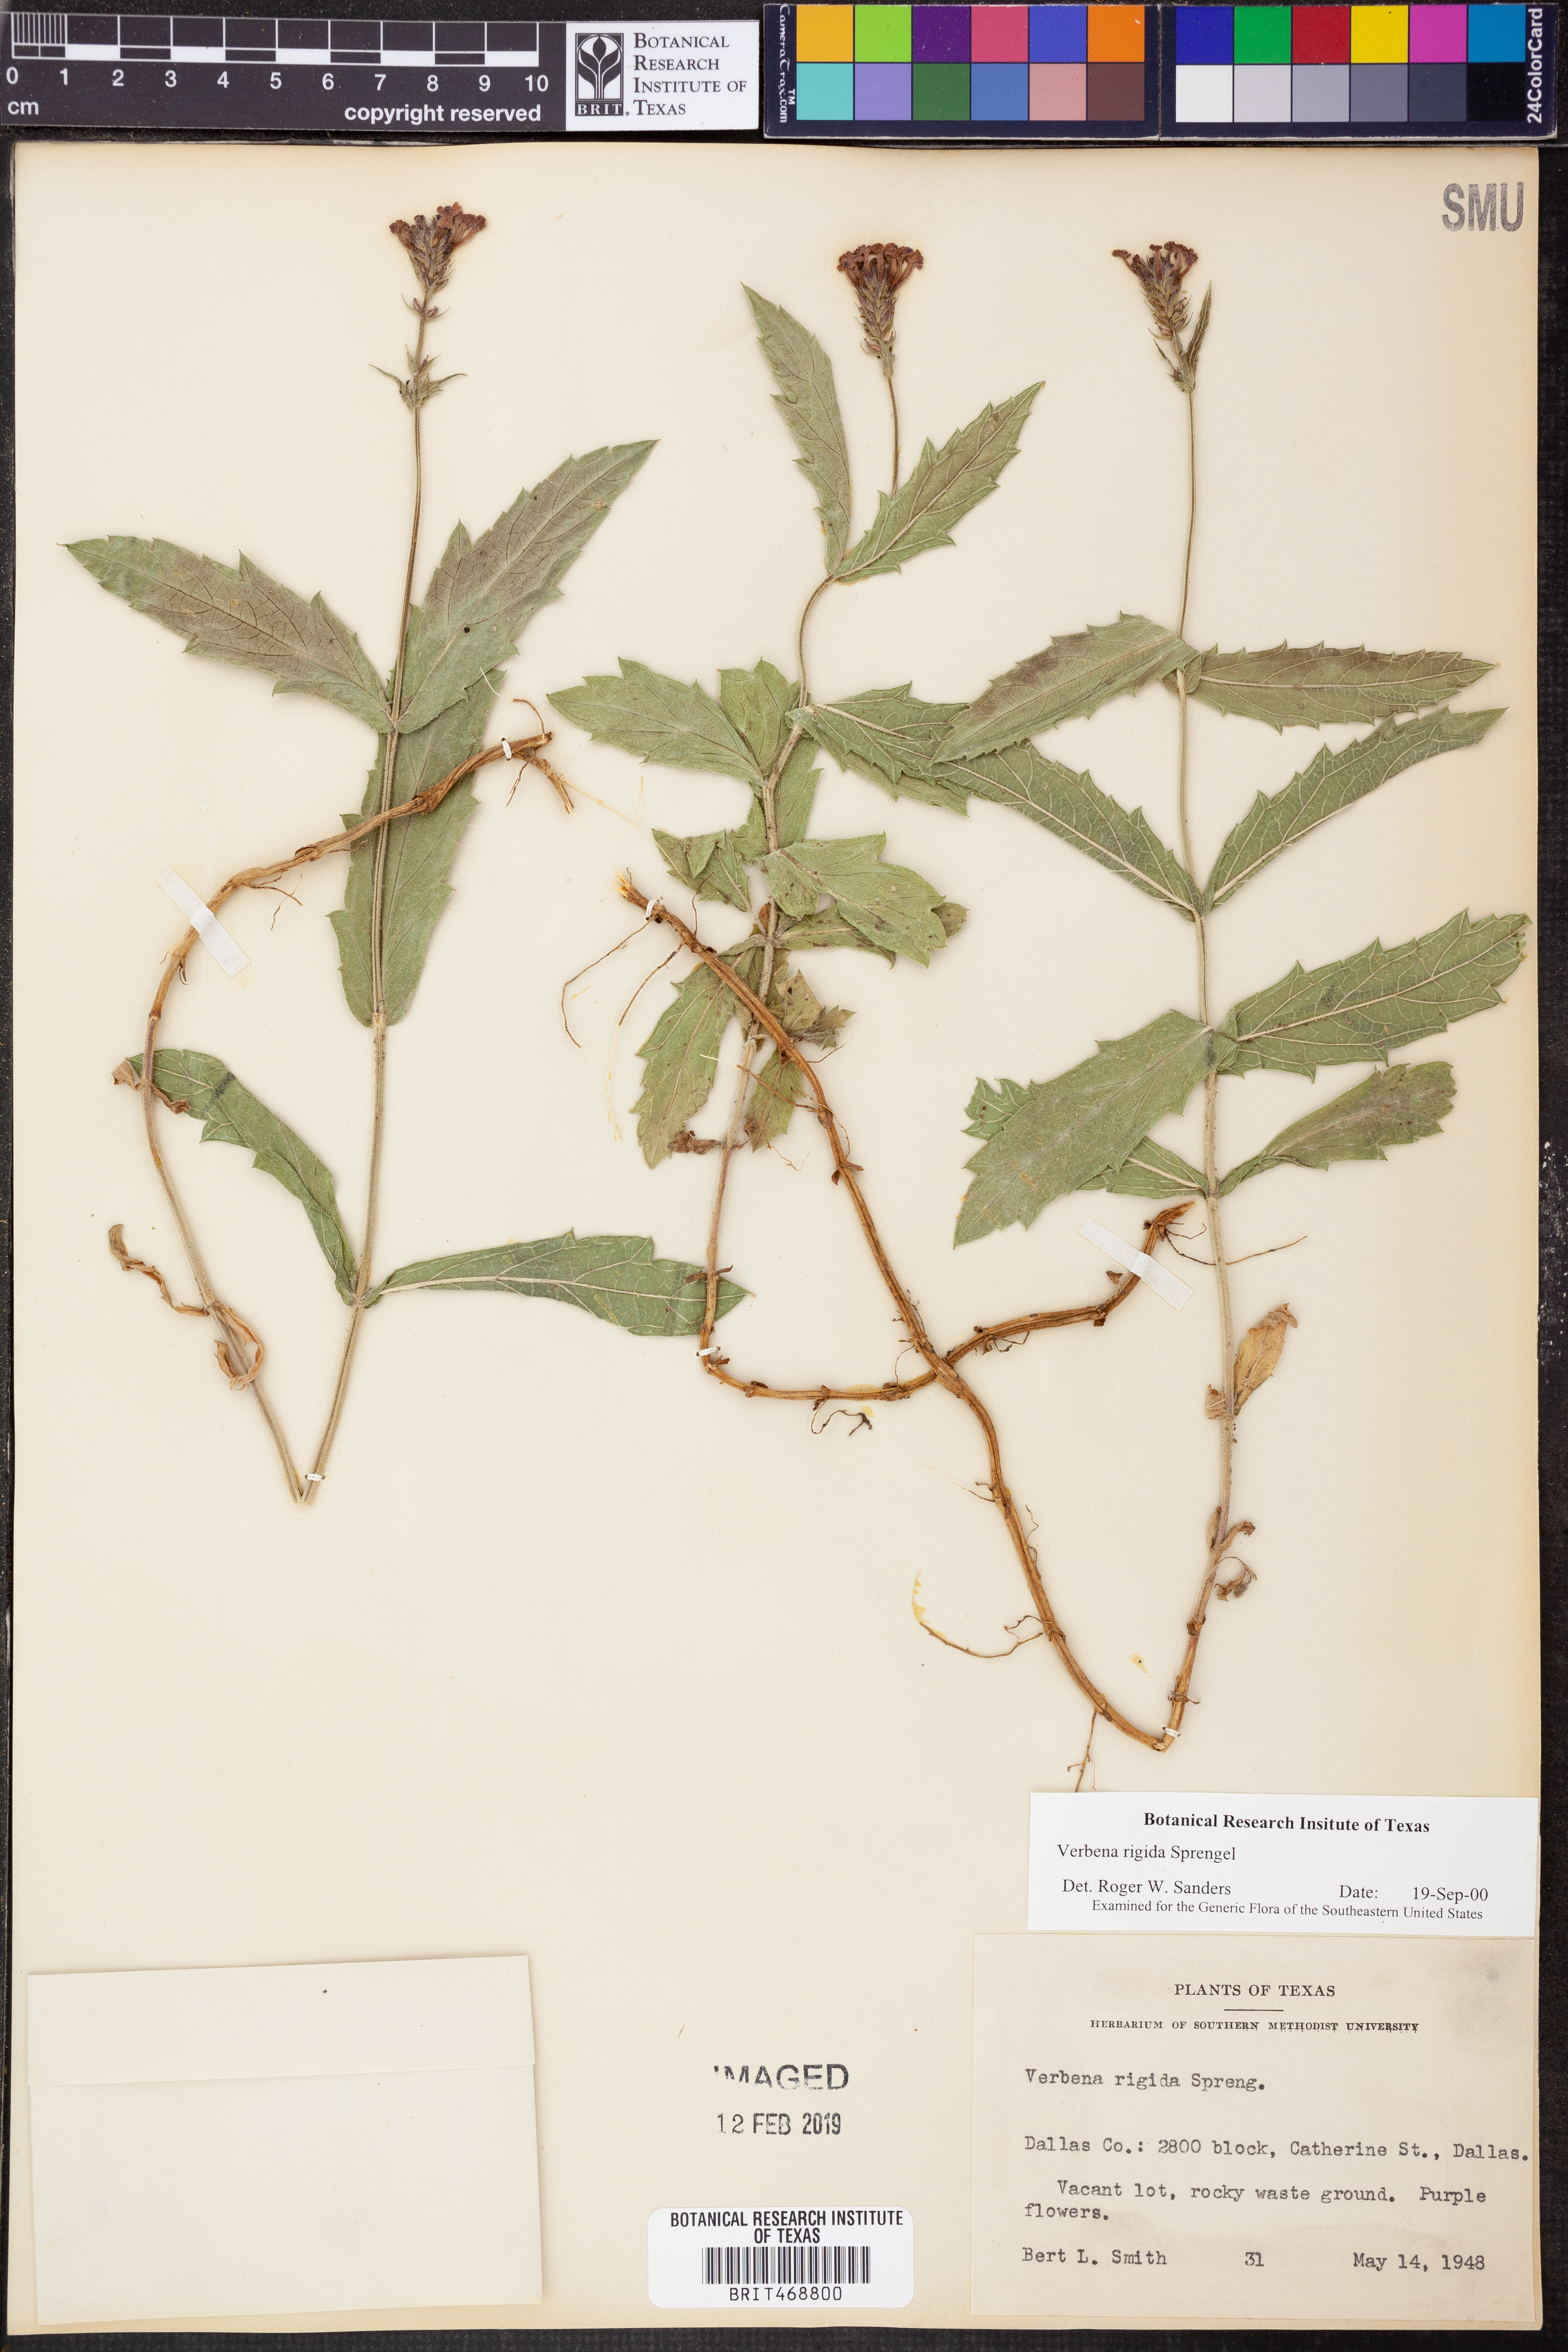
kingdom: Plantae
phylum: Tracheophyta
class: Magnoliopsida
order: Lamiales
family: Verbenaceae
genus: Verbena
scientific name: Verbena rigida
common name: Slender vervain
